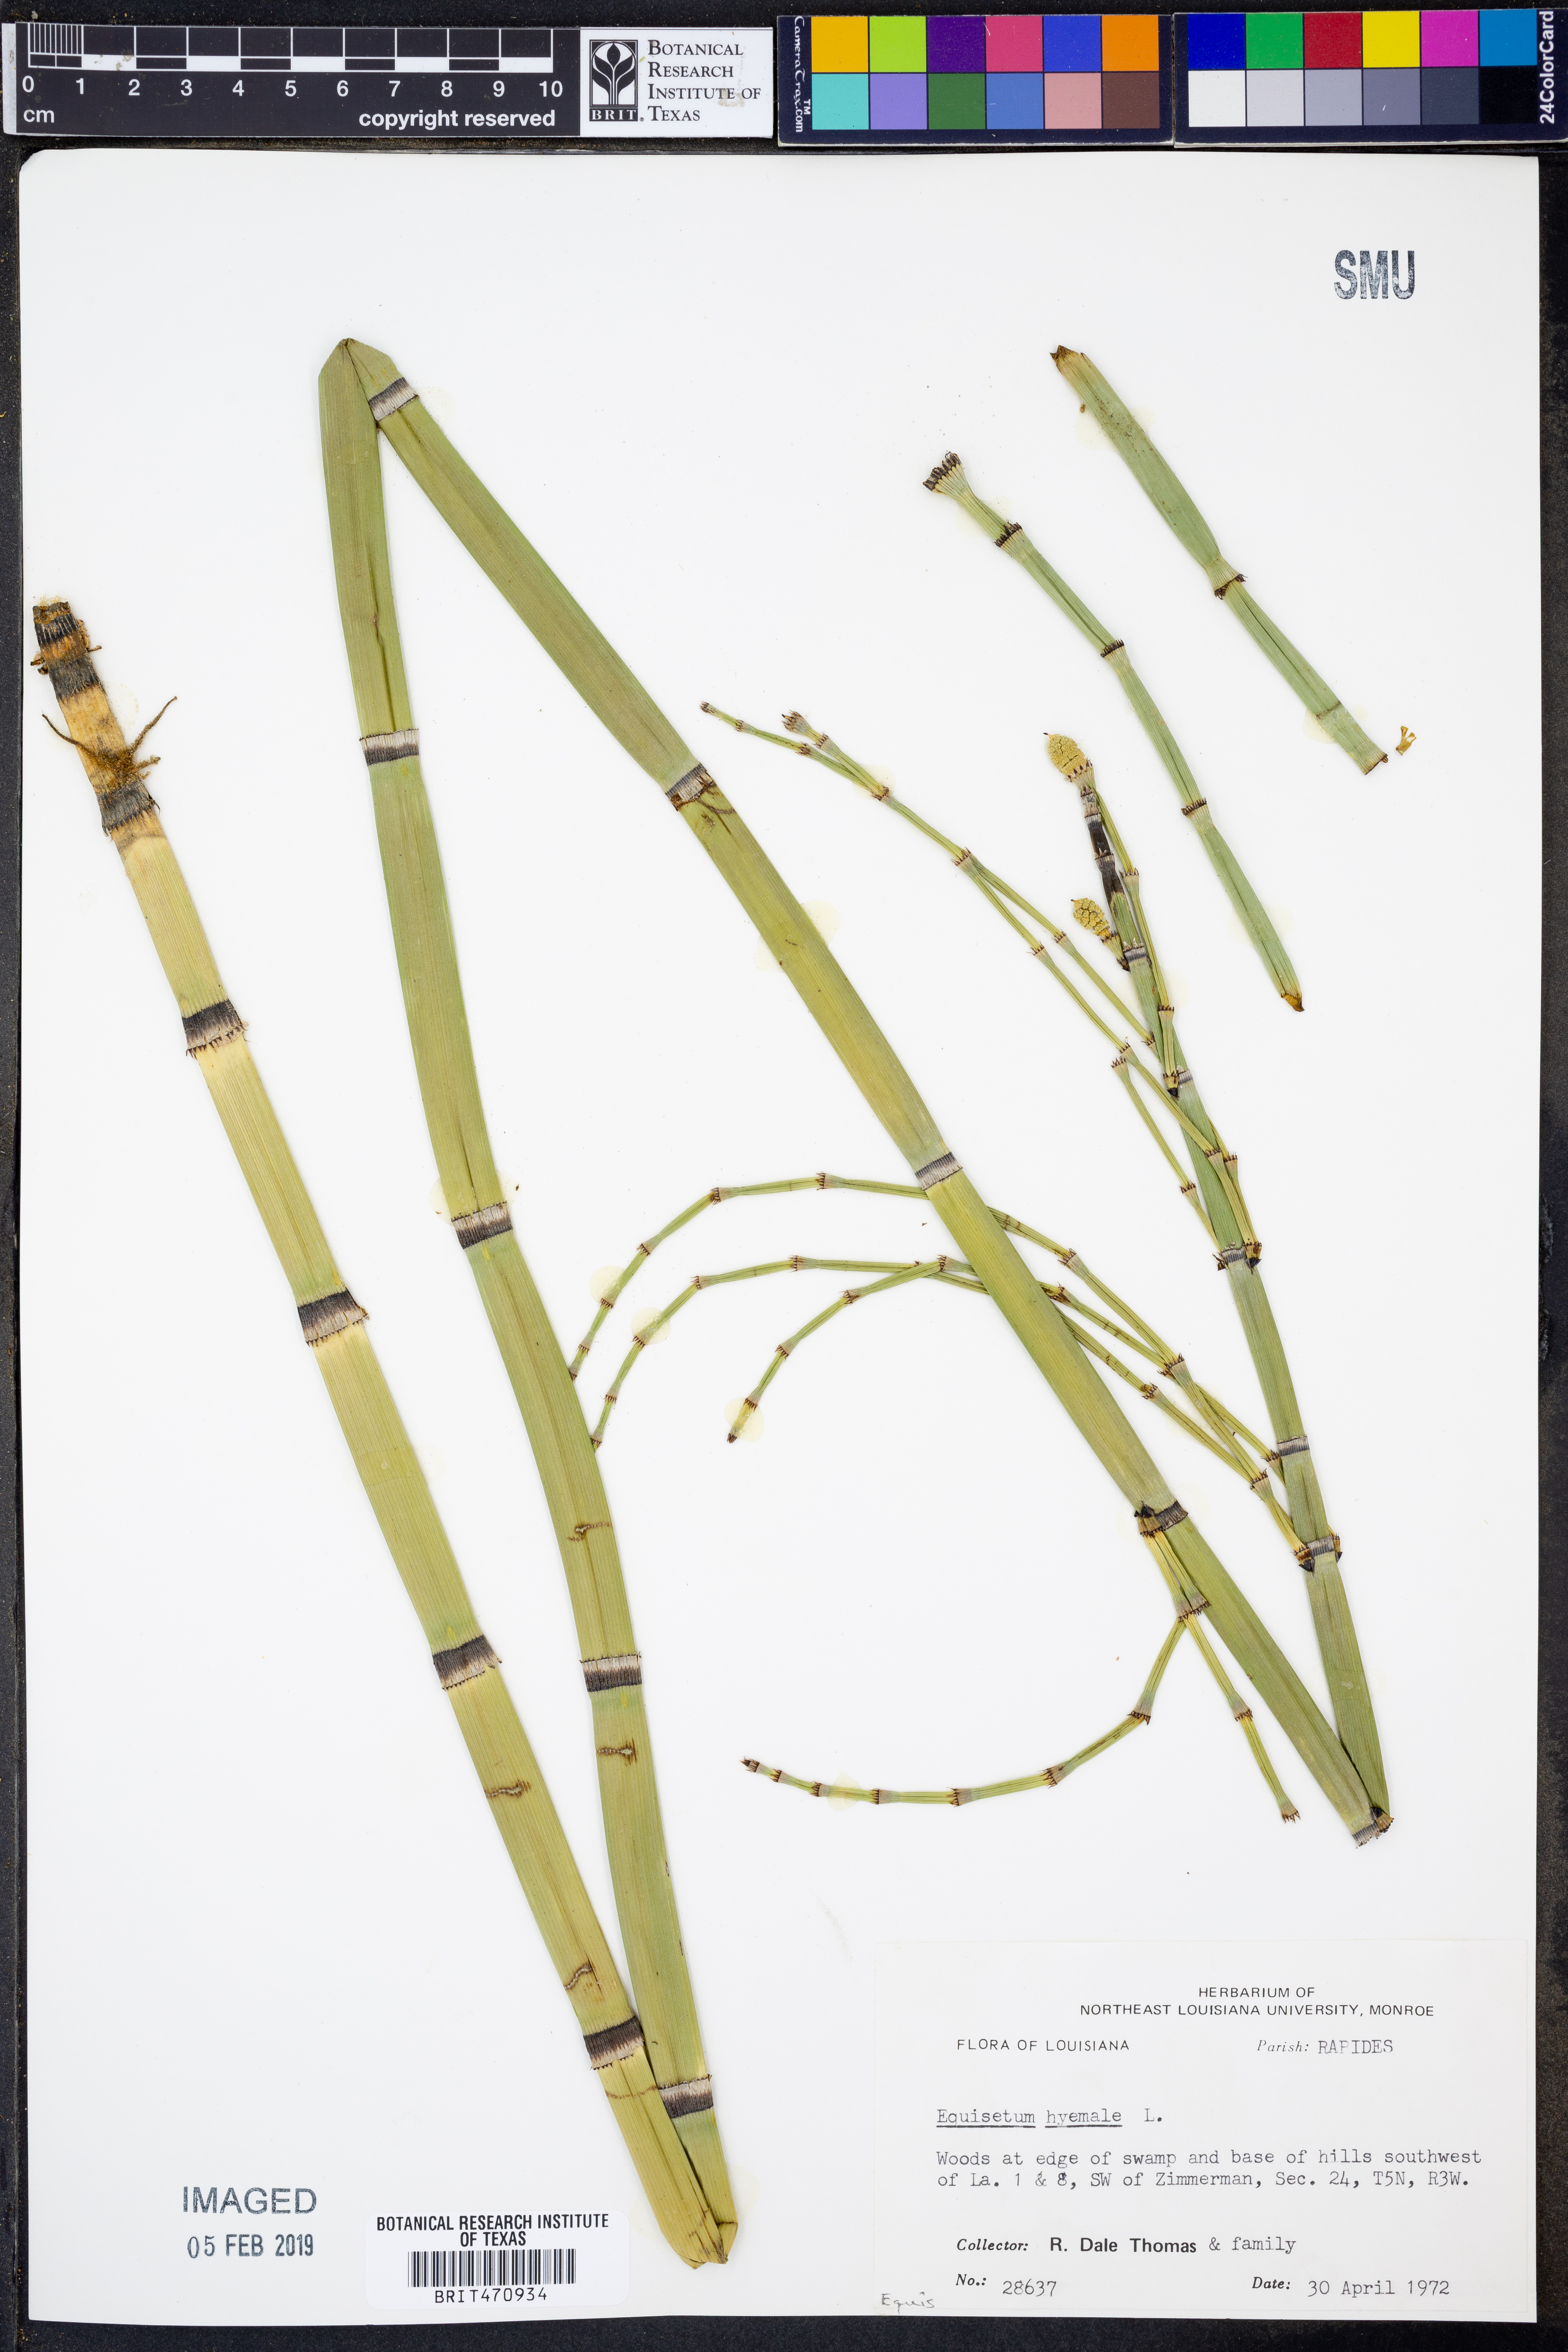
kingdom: Plantae
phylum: Tracheophyta
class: Polypodiopsida
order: Equisetales
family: Equisetaceae
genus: Equisetum
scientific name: Equisetum praealtum
